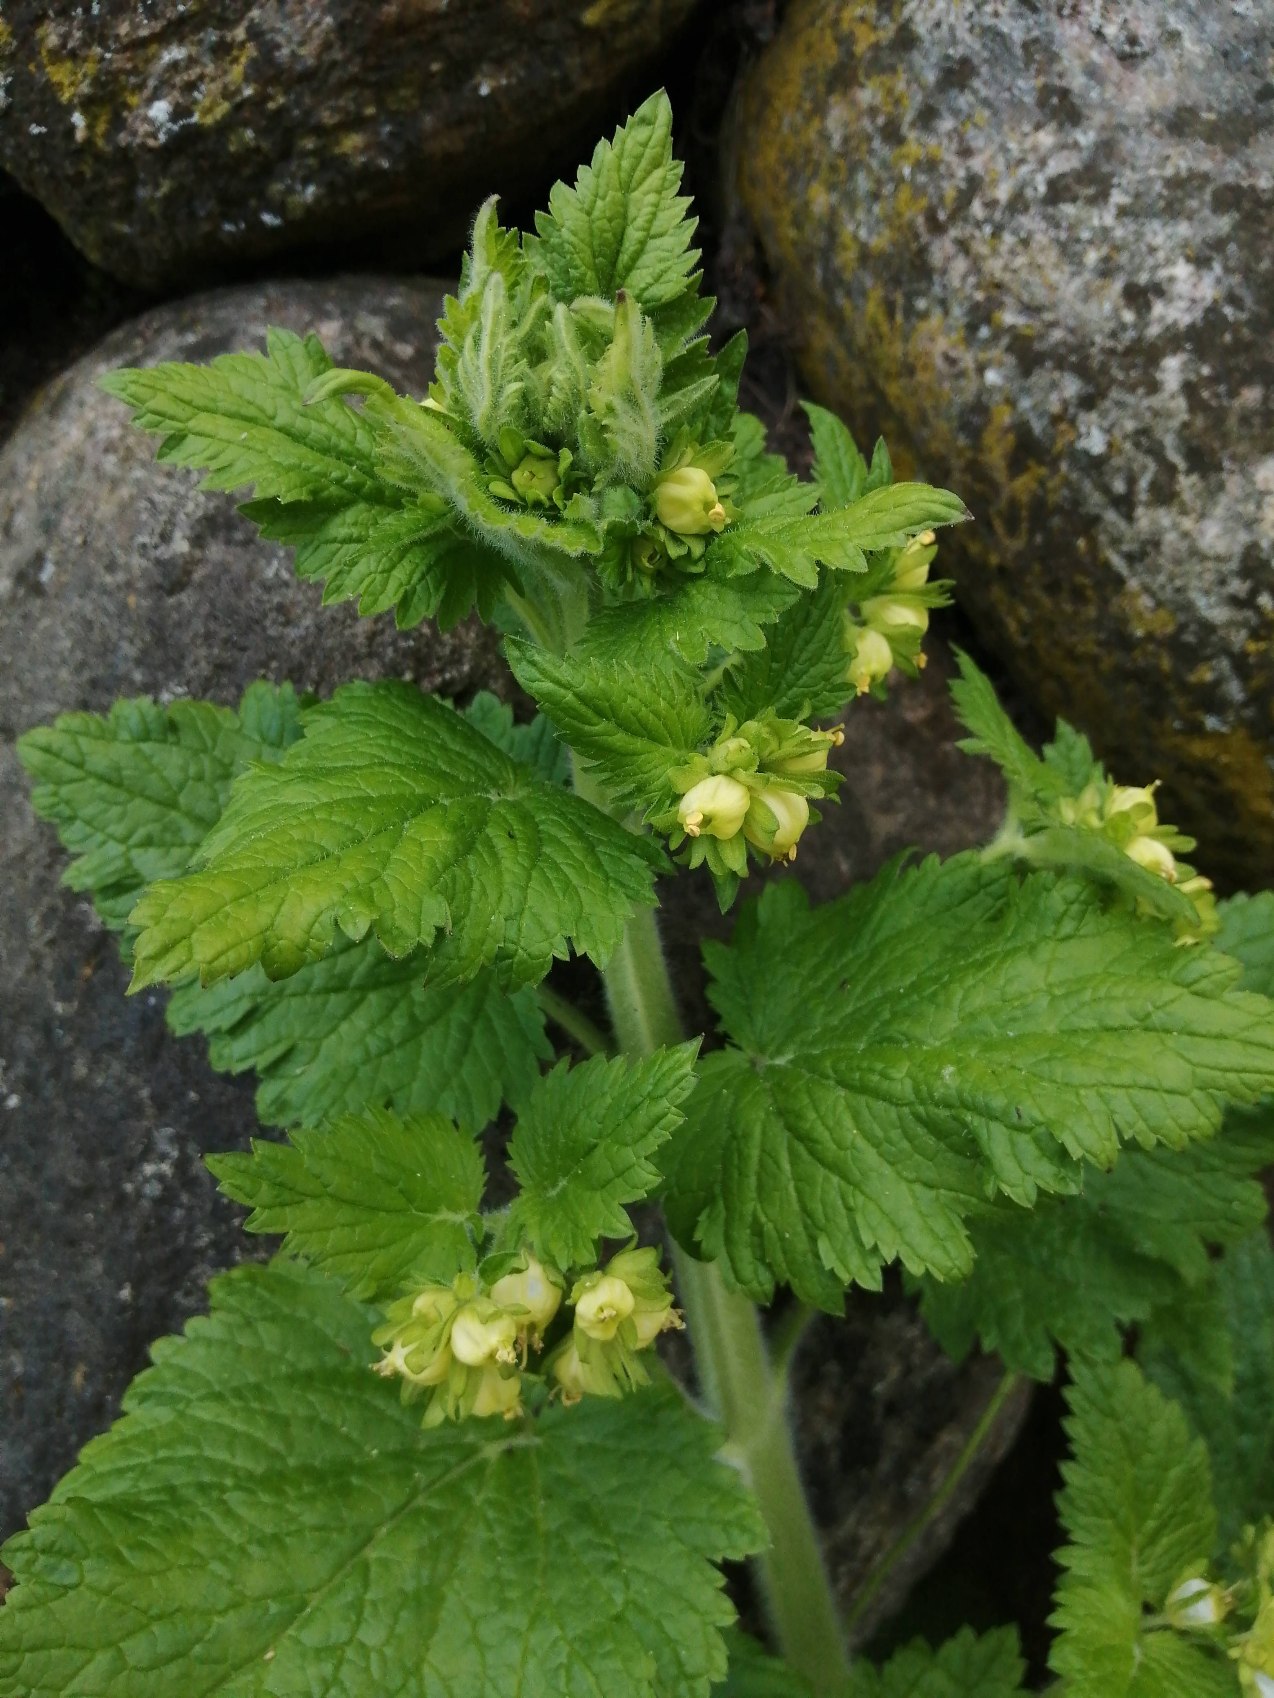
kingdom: Plantae
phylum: Tracheophyta
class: Magnoliopsida
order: Lamiales
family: Scrophulariaceae
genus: Scrophularia
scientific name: Scrophularia vernalis
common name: Vår-brunrod
